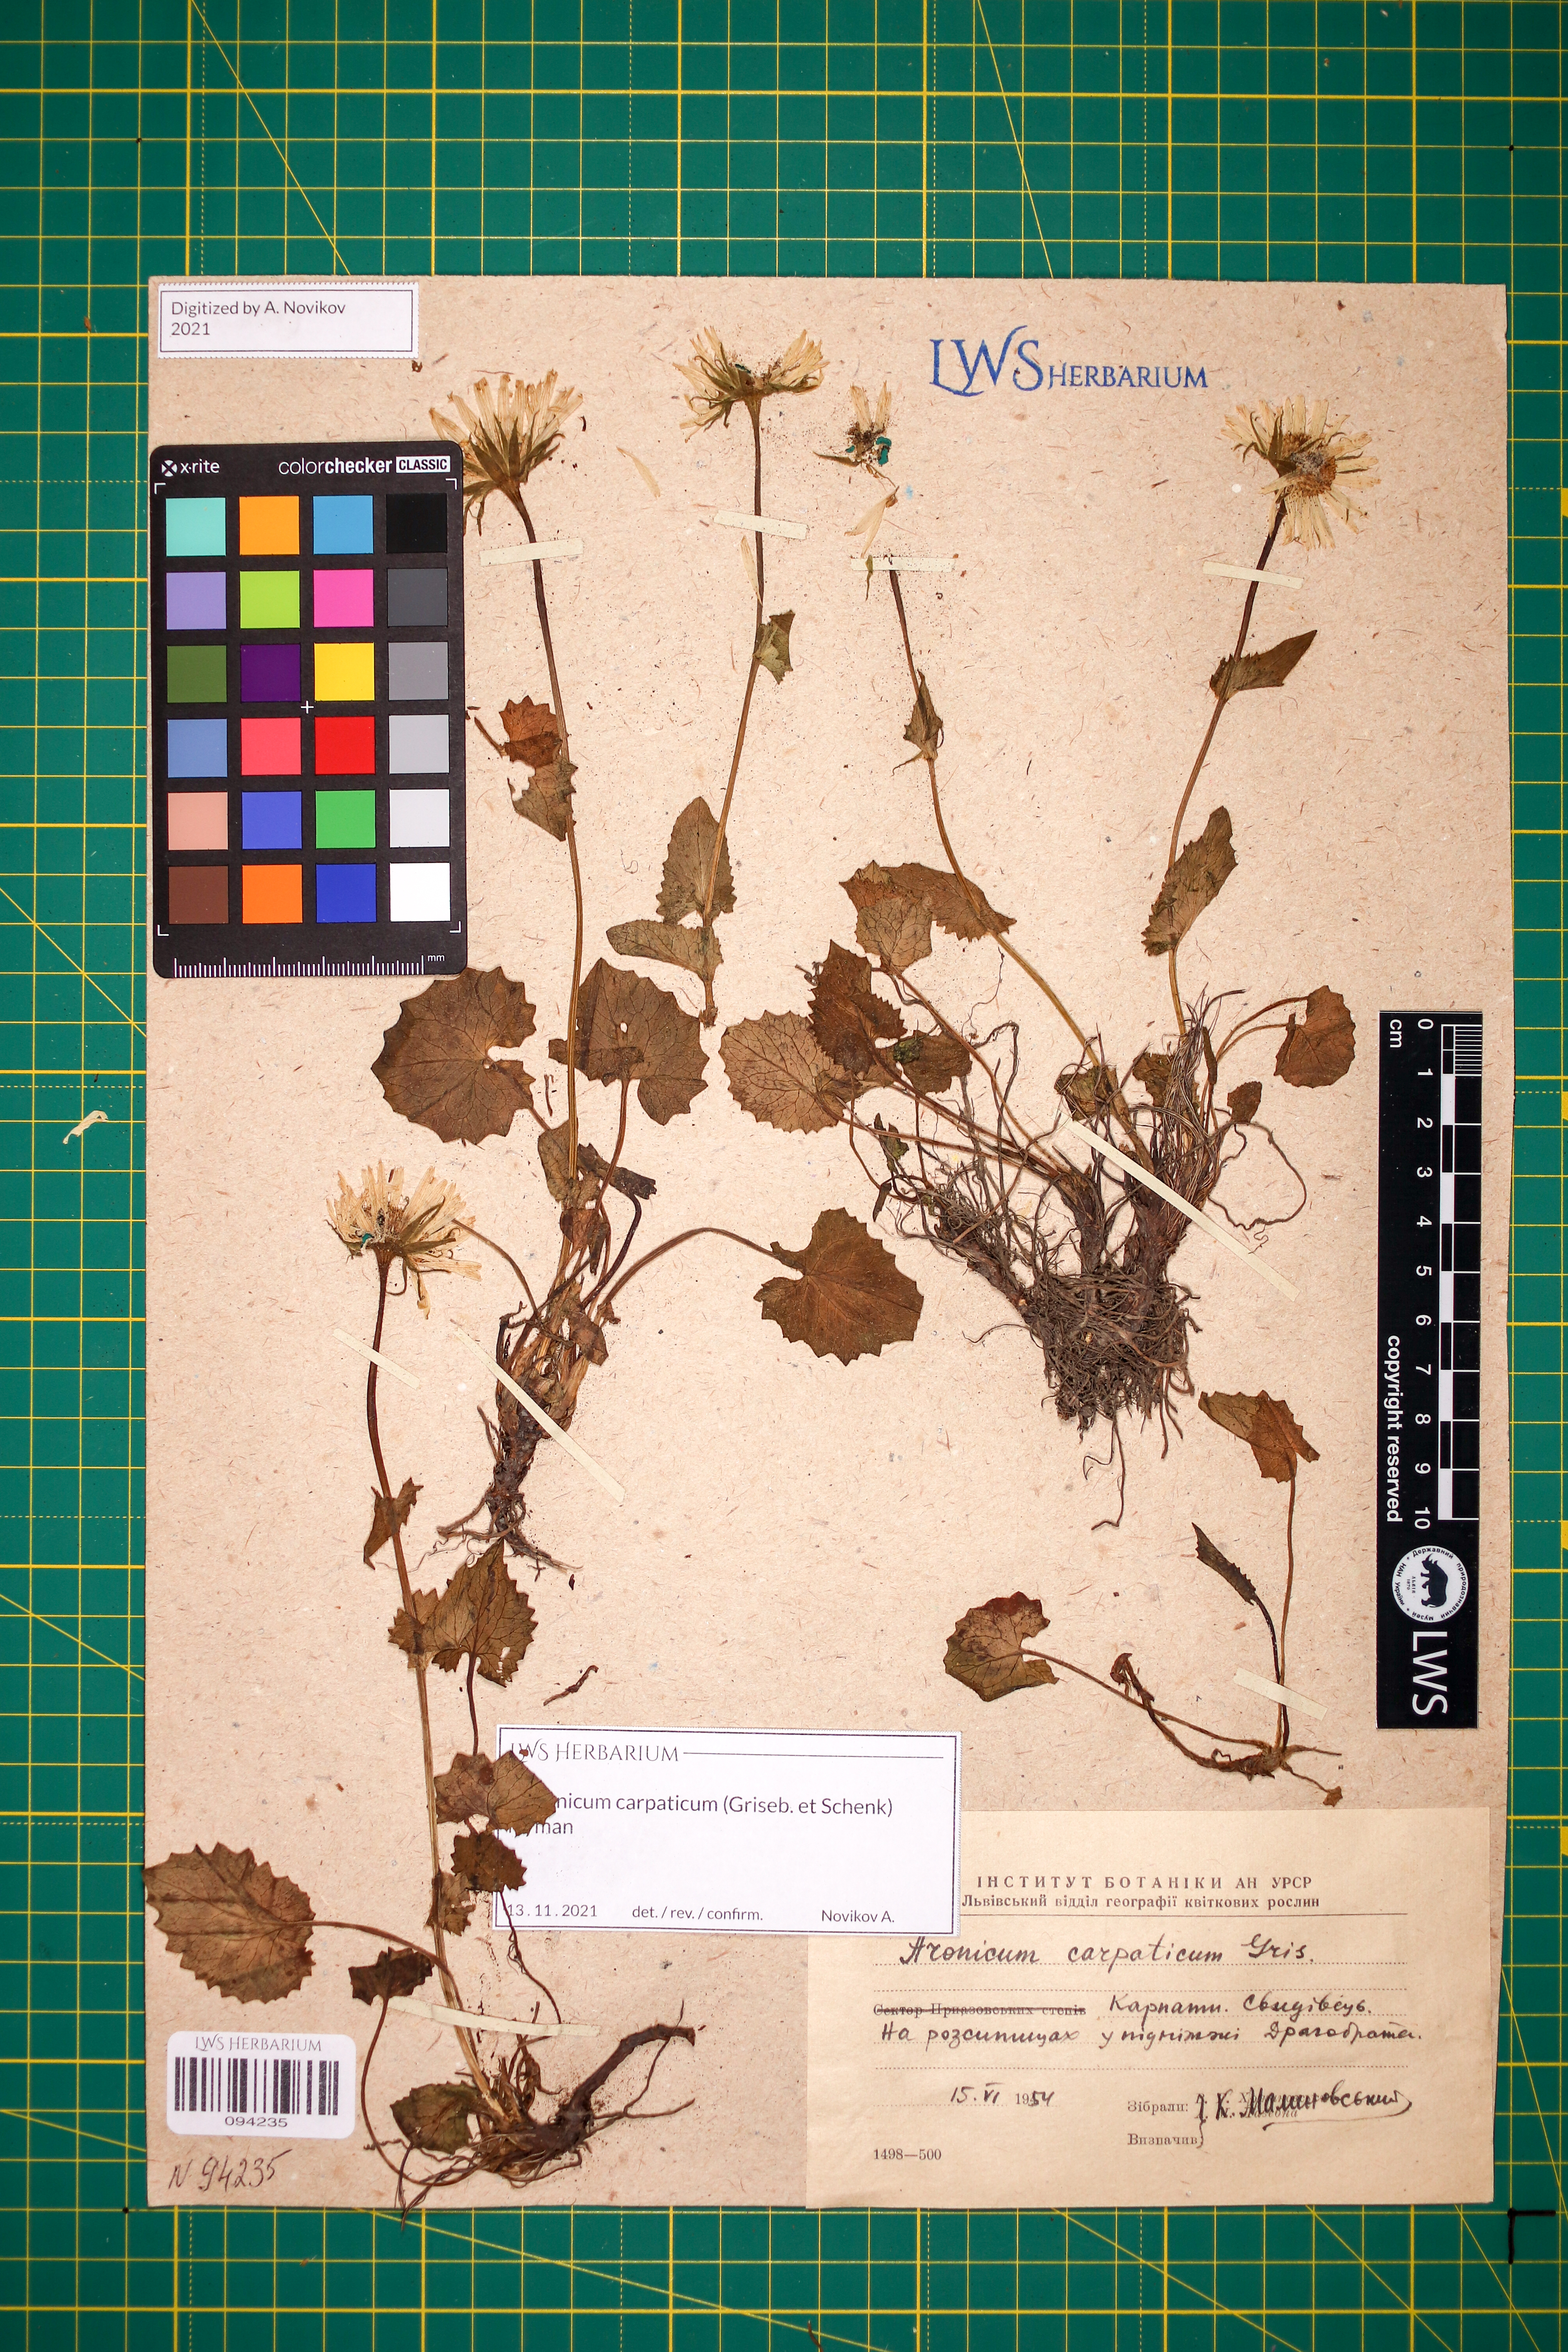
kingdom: Plantae
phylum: Tracheophyta
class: Magnoliopsida
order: Asterales
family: Asteraceae
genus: Doronicum
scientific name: Doronicum carpaticum
